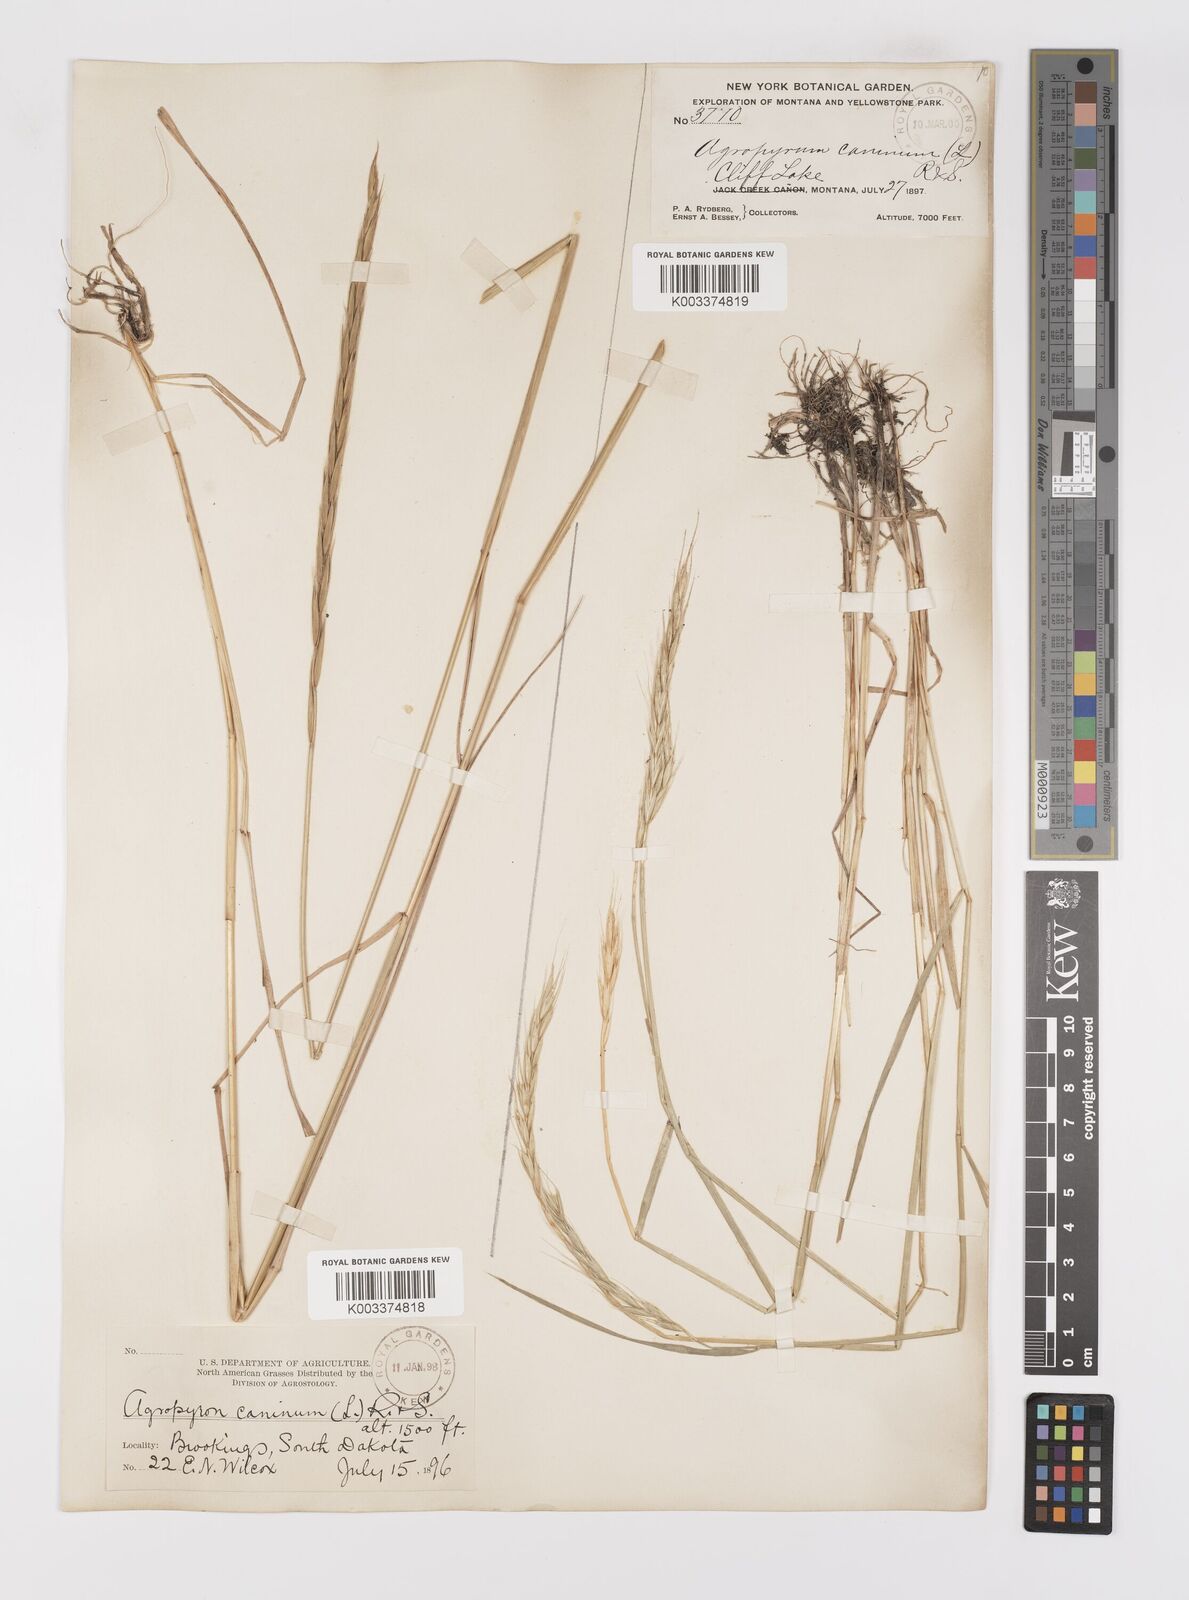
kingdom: Plantae
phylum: Tracheophyta
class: Liliopsida
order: Poales
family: Poaceae
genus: Elymus
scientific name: Elymus violaceus
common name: Arctic wheatgrass
